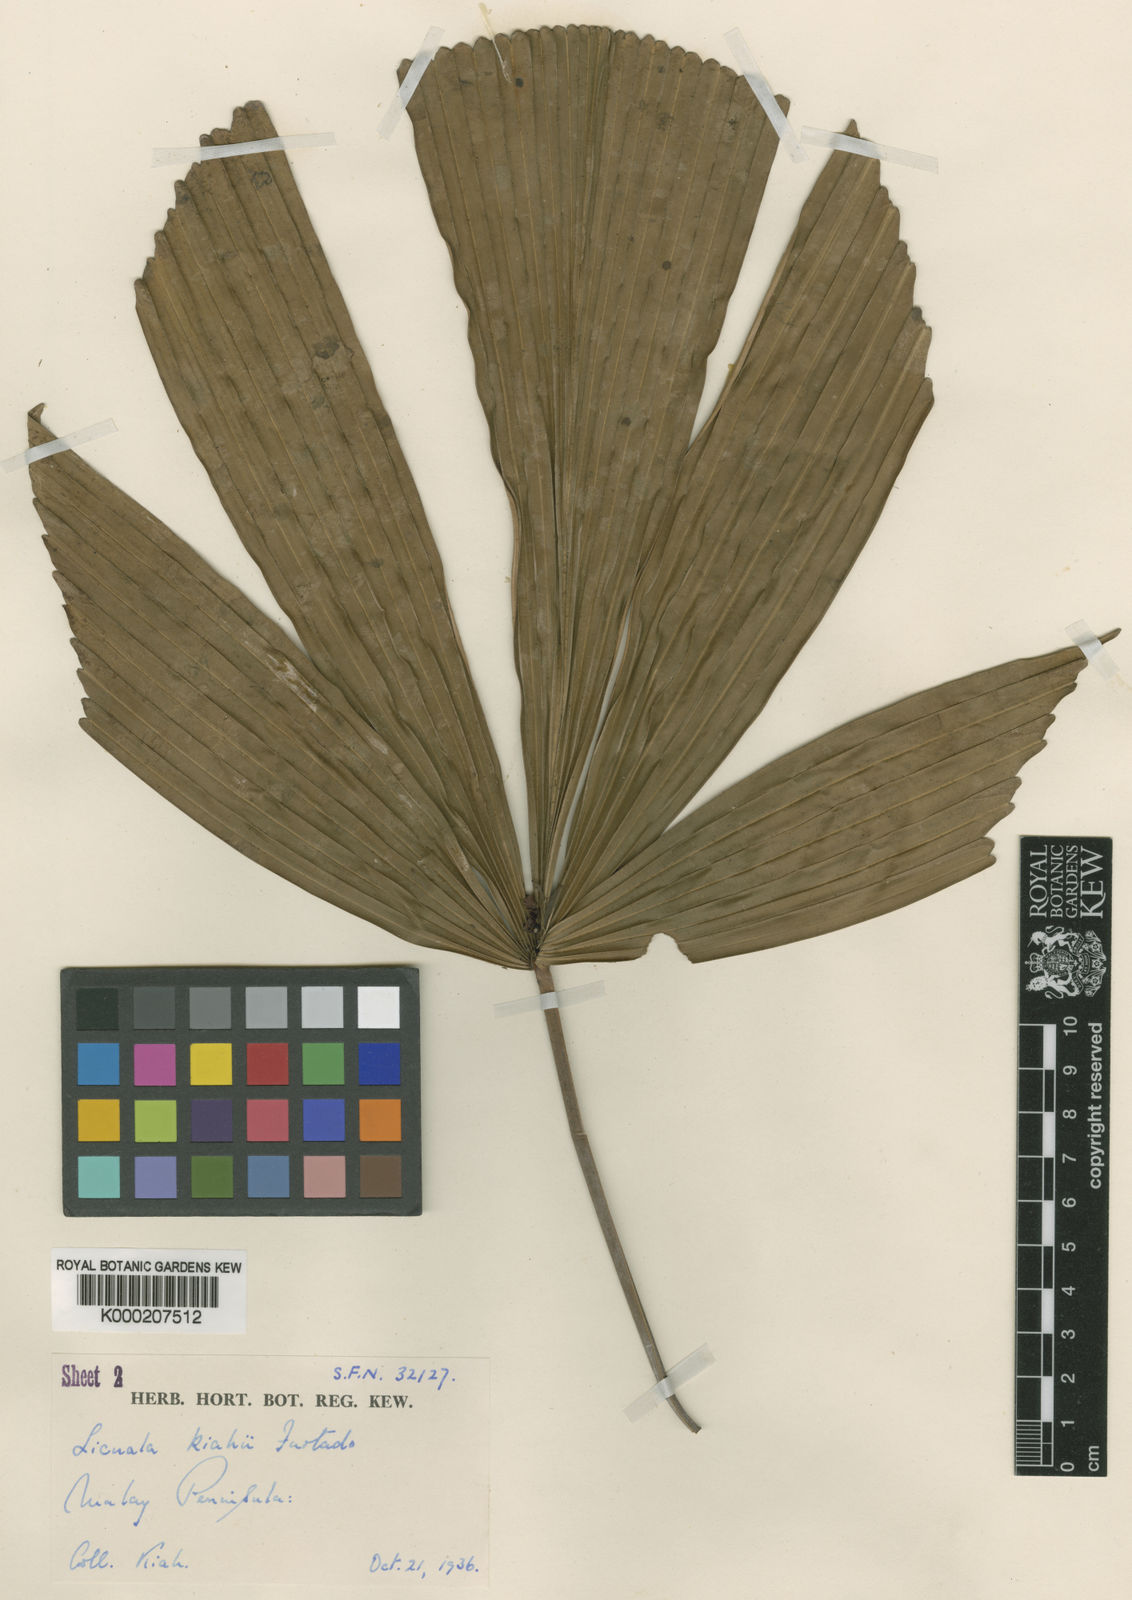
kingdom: Plantae
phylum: Tracheophyta
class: Liliopsida
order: Arecales
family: Arecaceae
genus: Licuala
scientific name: Licuala kiahii
